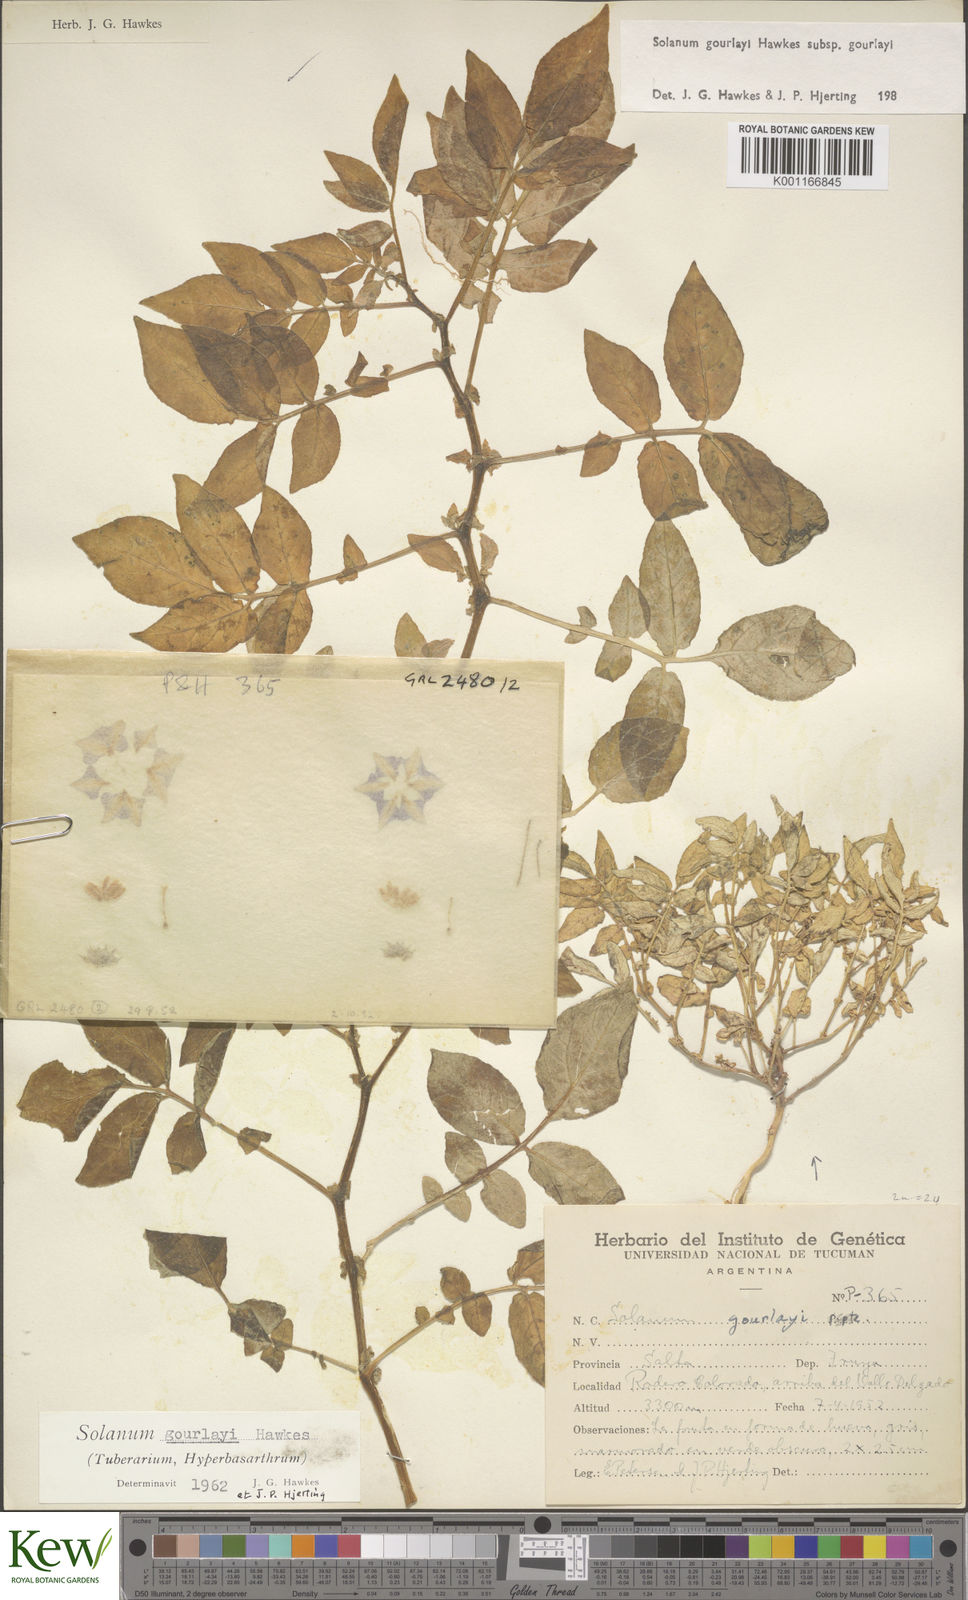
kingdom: Plantae
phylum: Tracheophyta
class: Magnoliopsida
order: Solanales
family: Solanaceae
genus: Solanum
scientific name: Solanum brevicaule
